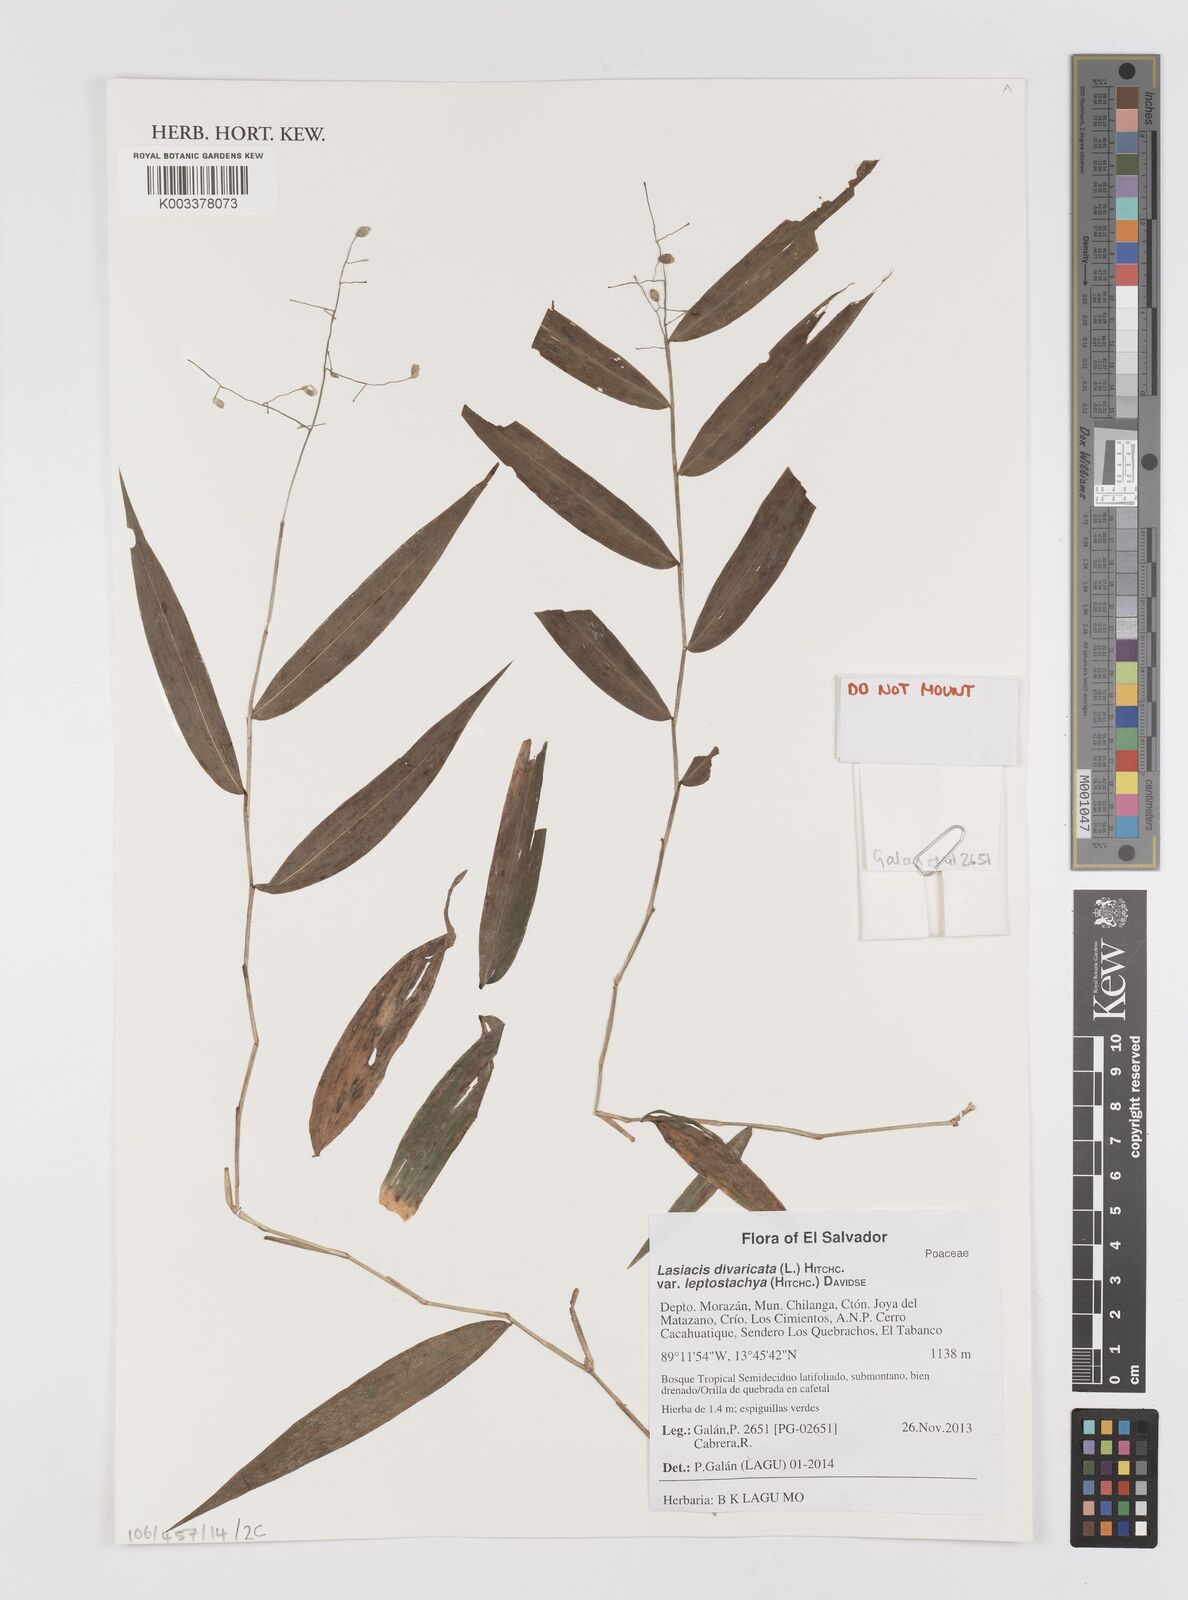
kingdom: Plantae
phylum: Tracheophyta
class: Liliopsida
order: Poales
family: Poaceae
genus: Lasiacis
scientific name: Lasiacis divaricata
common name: Smallcane
